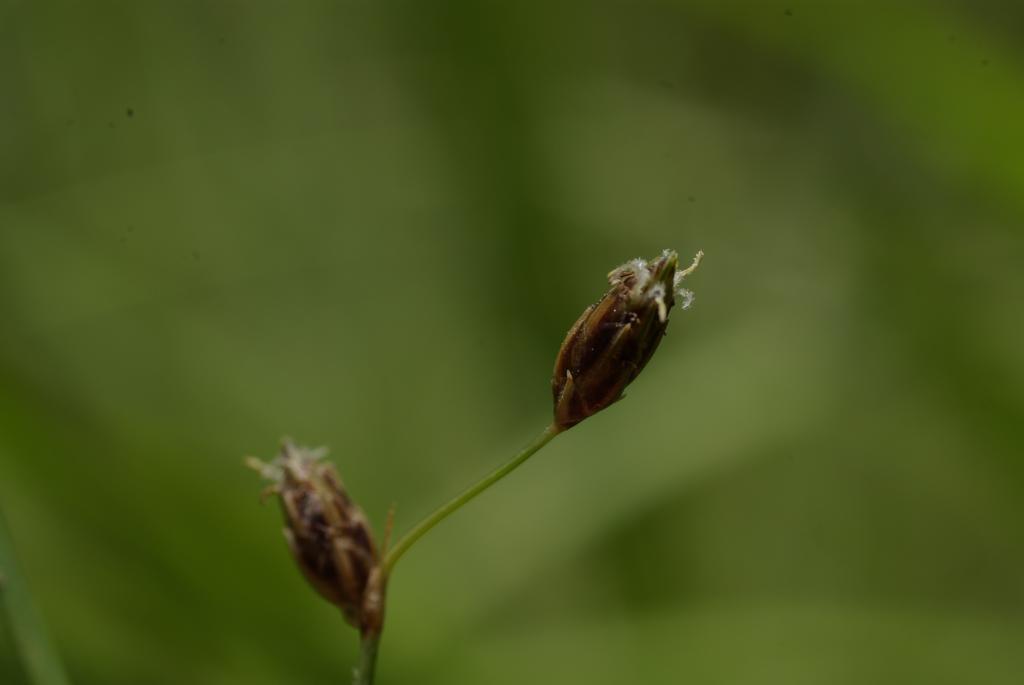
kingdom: Plantae
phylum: Tracheophyta
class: Liliopsida
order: Poales
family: Cyperaceae
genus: Fimbristylis
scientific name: Fimbristylis dichotoma
